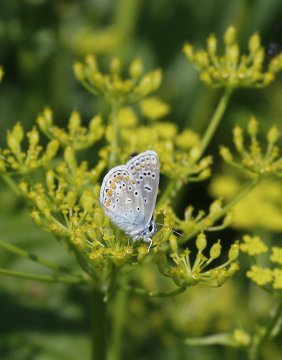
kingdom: Animalia
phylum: Arthropoda
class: Insecta
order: Lepidoptera
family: Lycaenidae
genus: Polyommatus
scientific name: Polyommatus icarus
